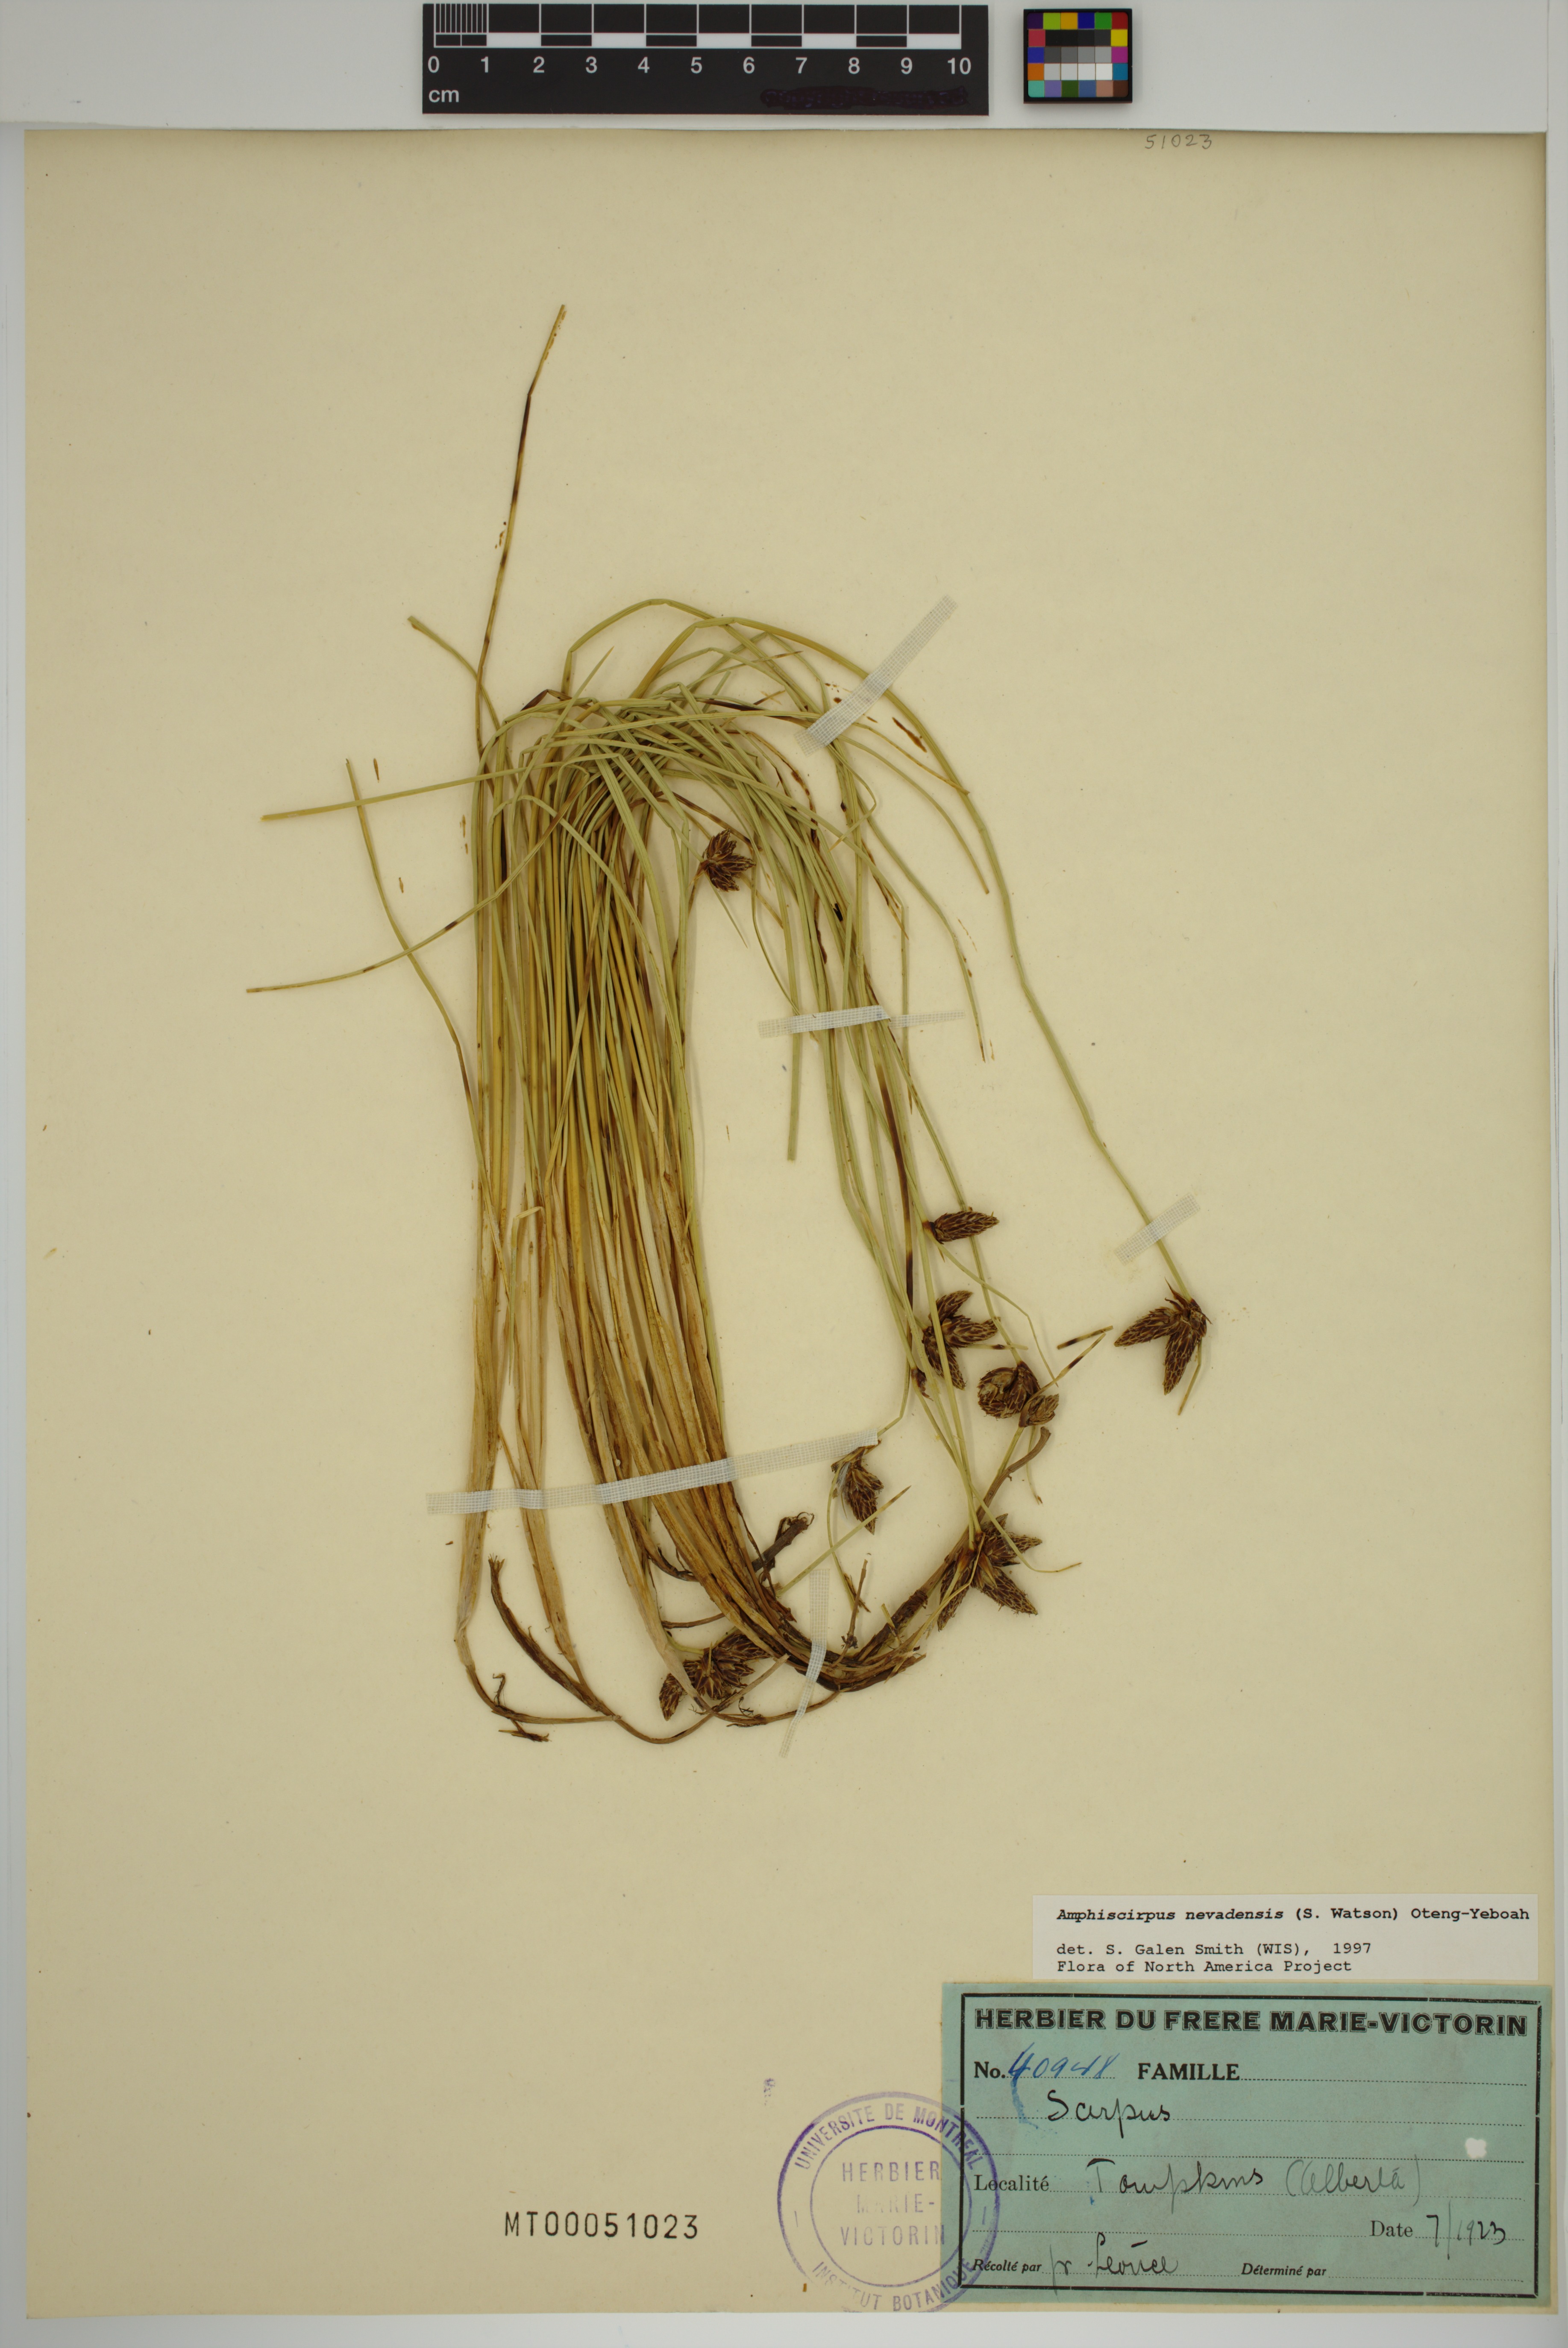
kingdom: Plantae
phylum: Tracheophyta
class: Liliopsida
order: Poales
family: Cyperaceae
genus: Amphiscirpus
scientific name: Amphiscirpus nevadensis
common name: Nevada bulrush
